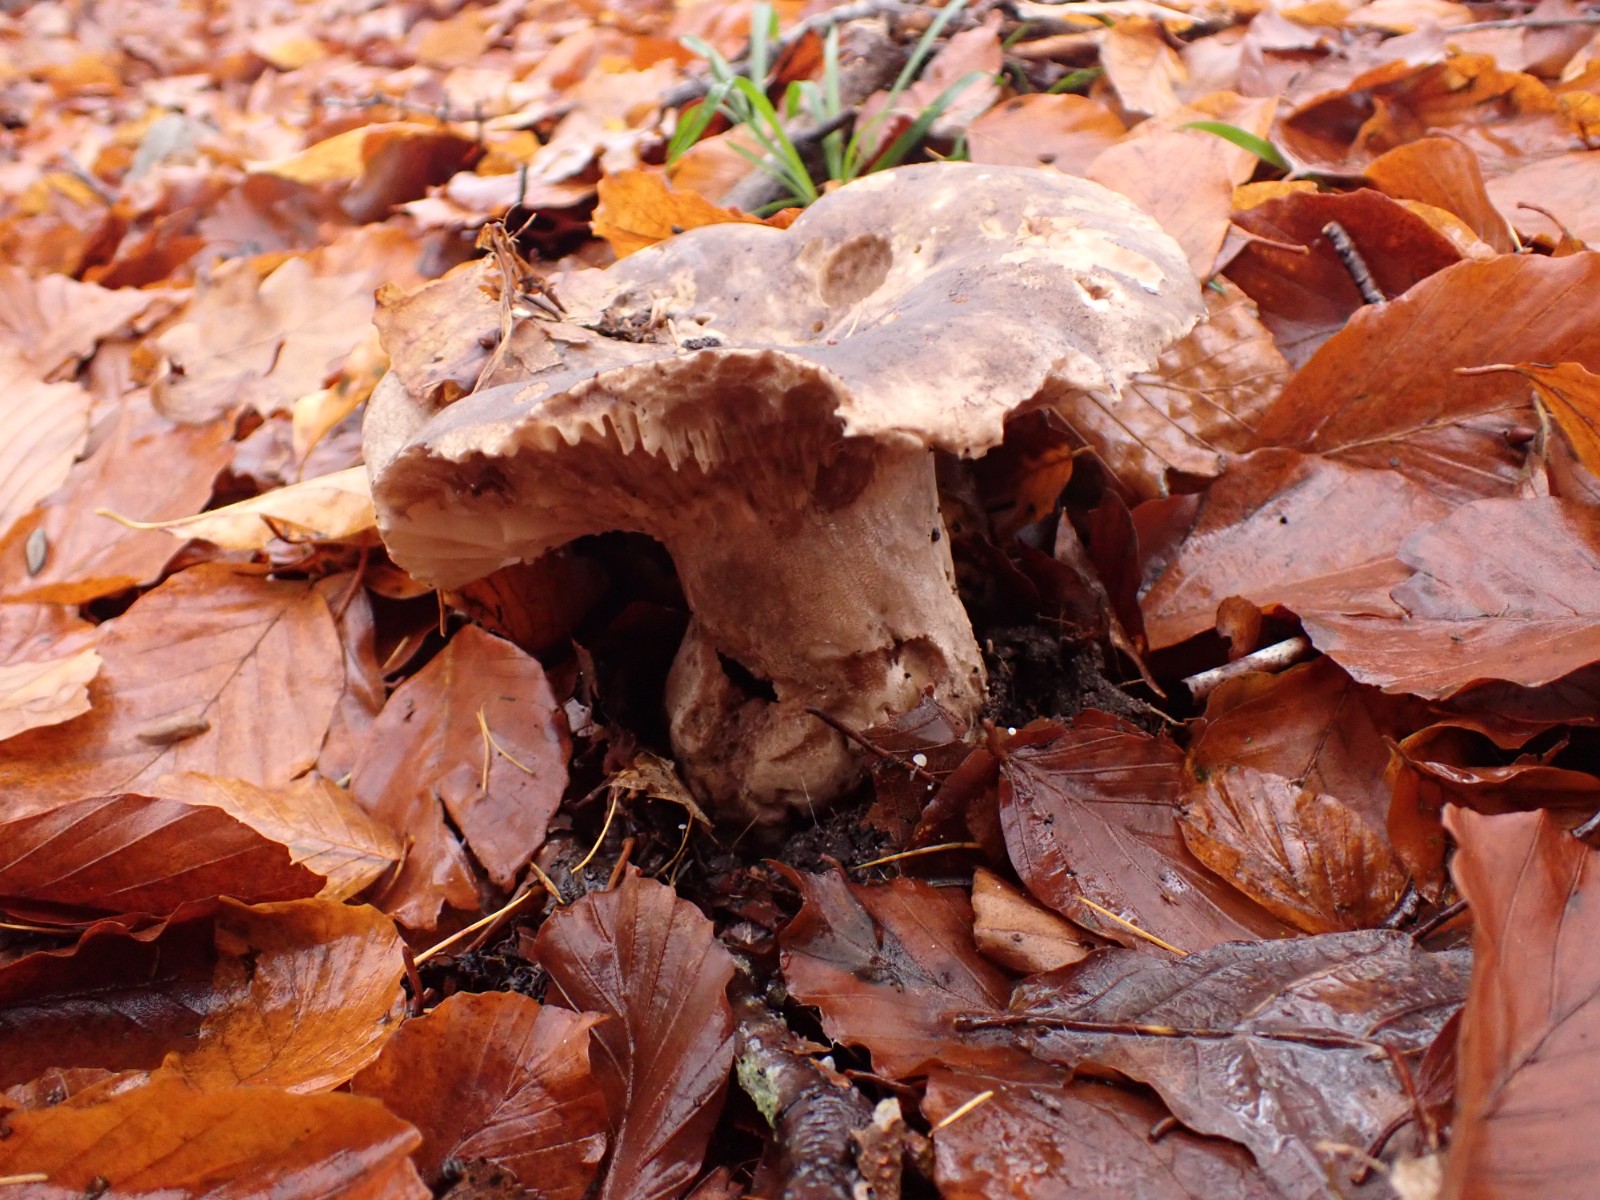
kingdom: Fungi
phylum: Basidiomycota
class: Agaricomycetes
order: Russulales
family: Russulaceae
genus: Russula
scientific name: Russula adusta
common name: sværtende skørhat
